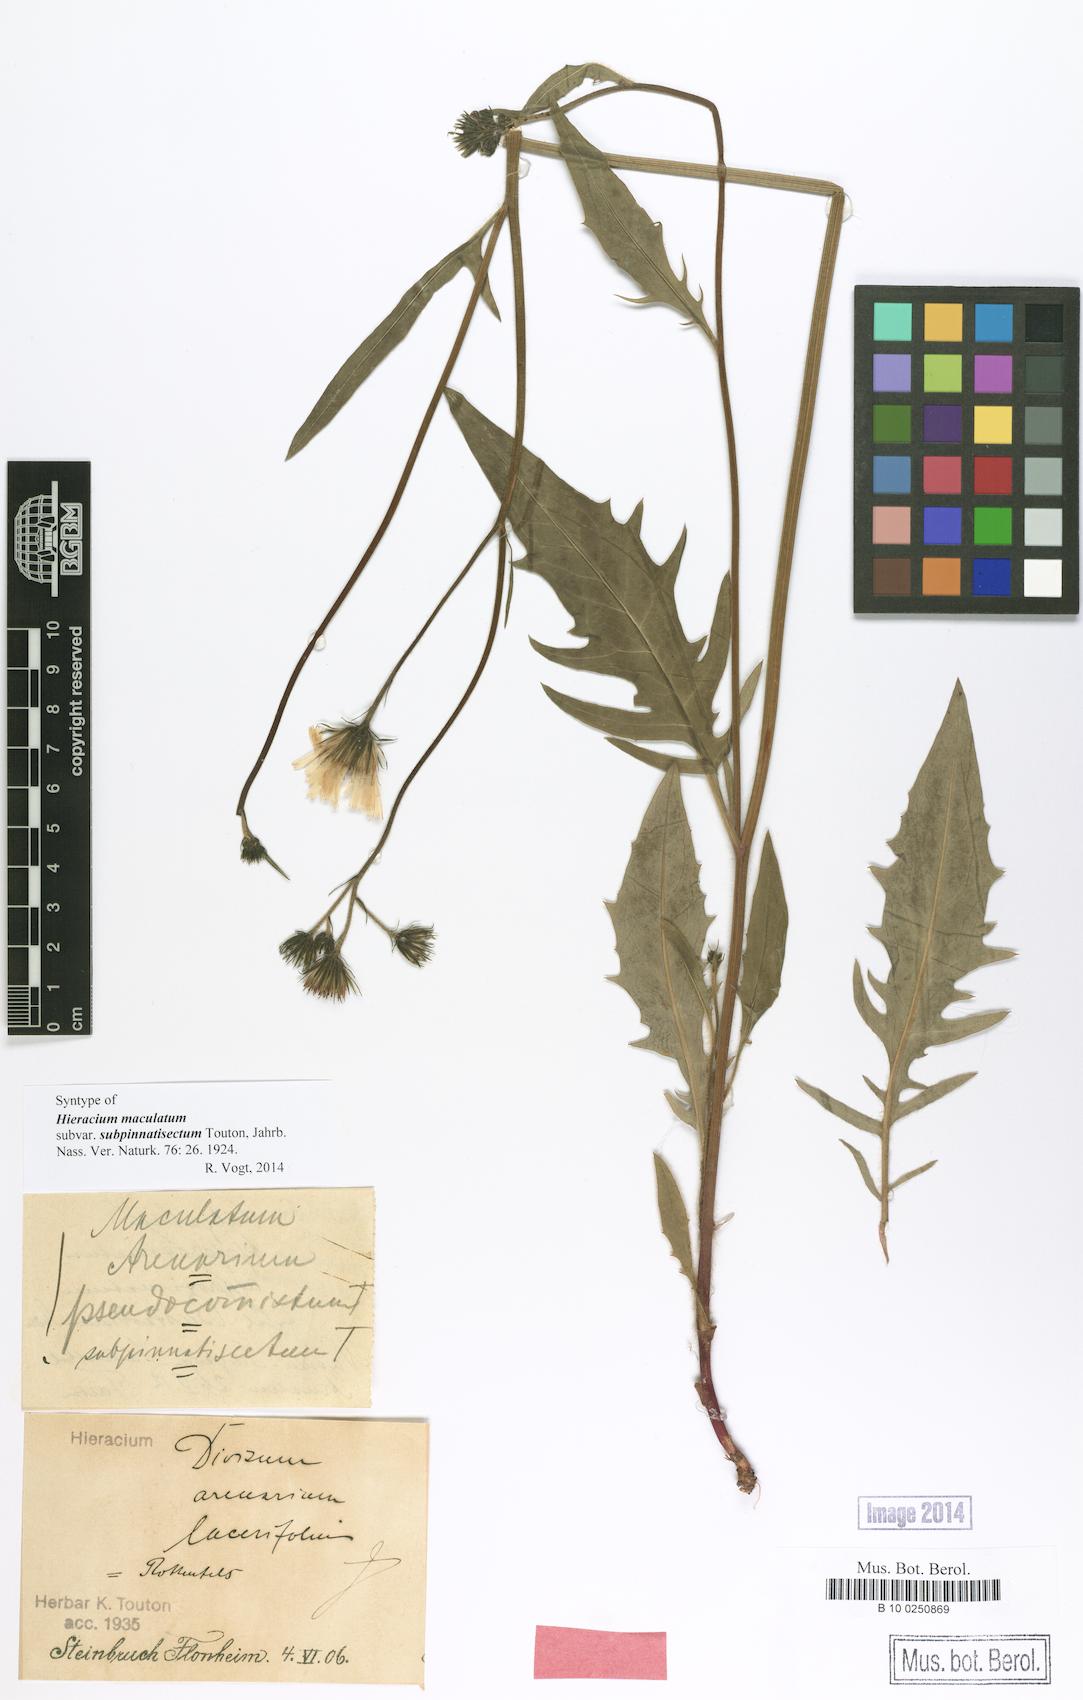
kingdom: Plantae
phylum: Tracheophyta
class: Magnoliopsida
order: Asterales
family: Asteraceae
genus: Hieracium
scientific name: Hieracium maculatum
